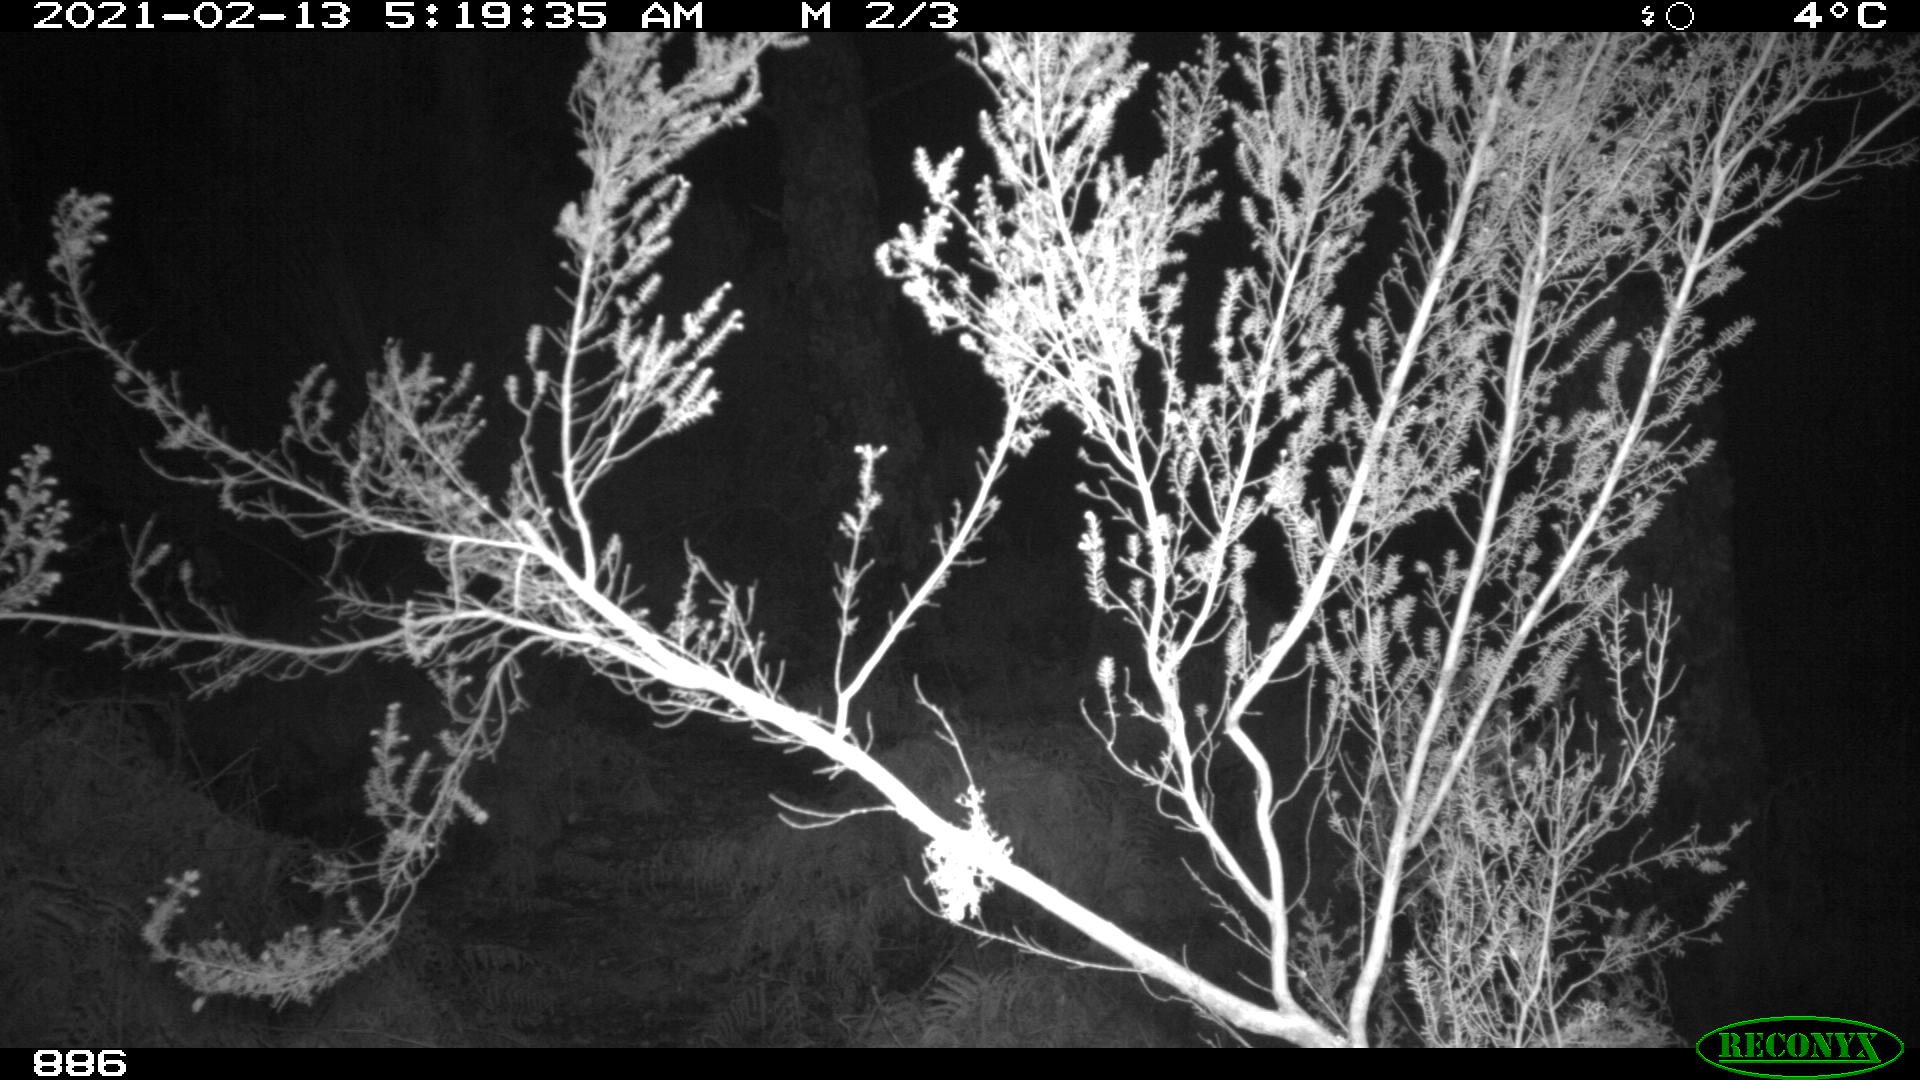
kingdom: Animalia
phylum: Chordata
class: Mammalia
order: Artiodactyla
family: Suidae
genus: Sus
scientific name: Sus scrofa
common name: Wild boar
